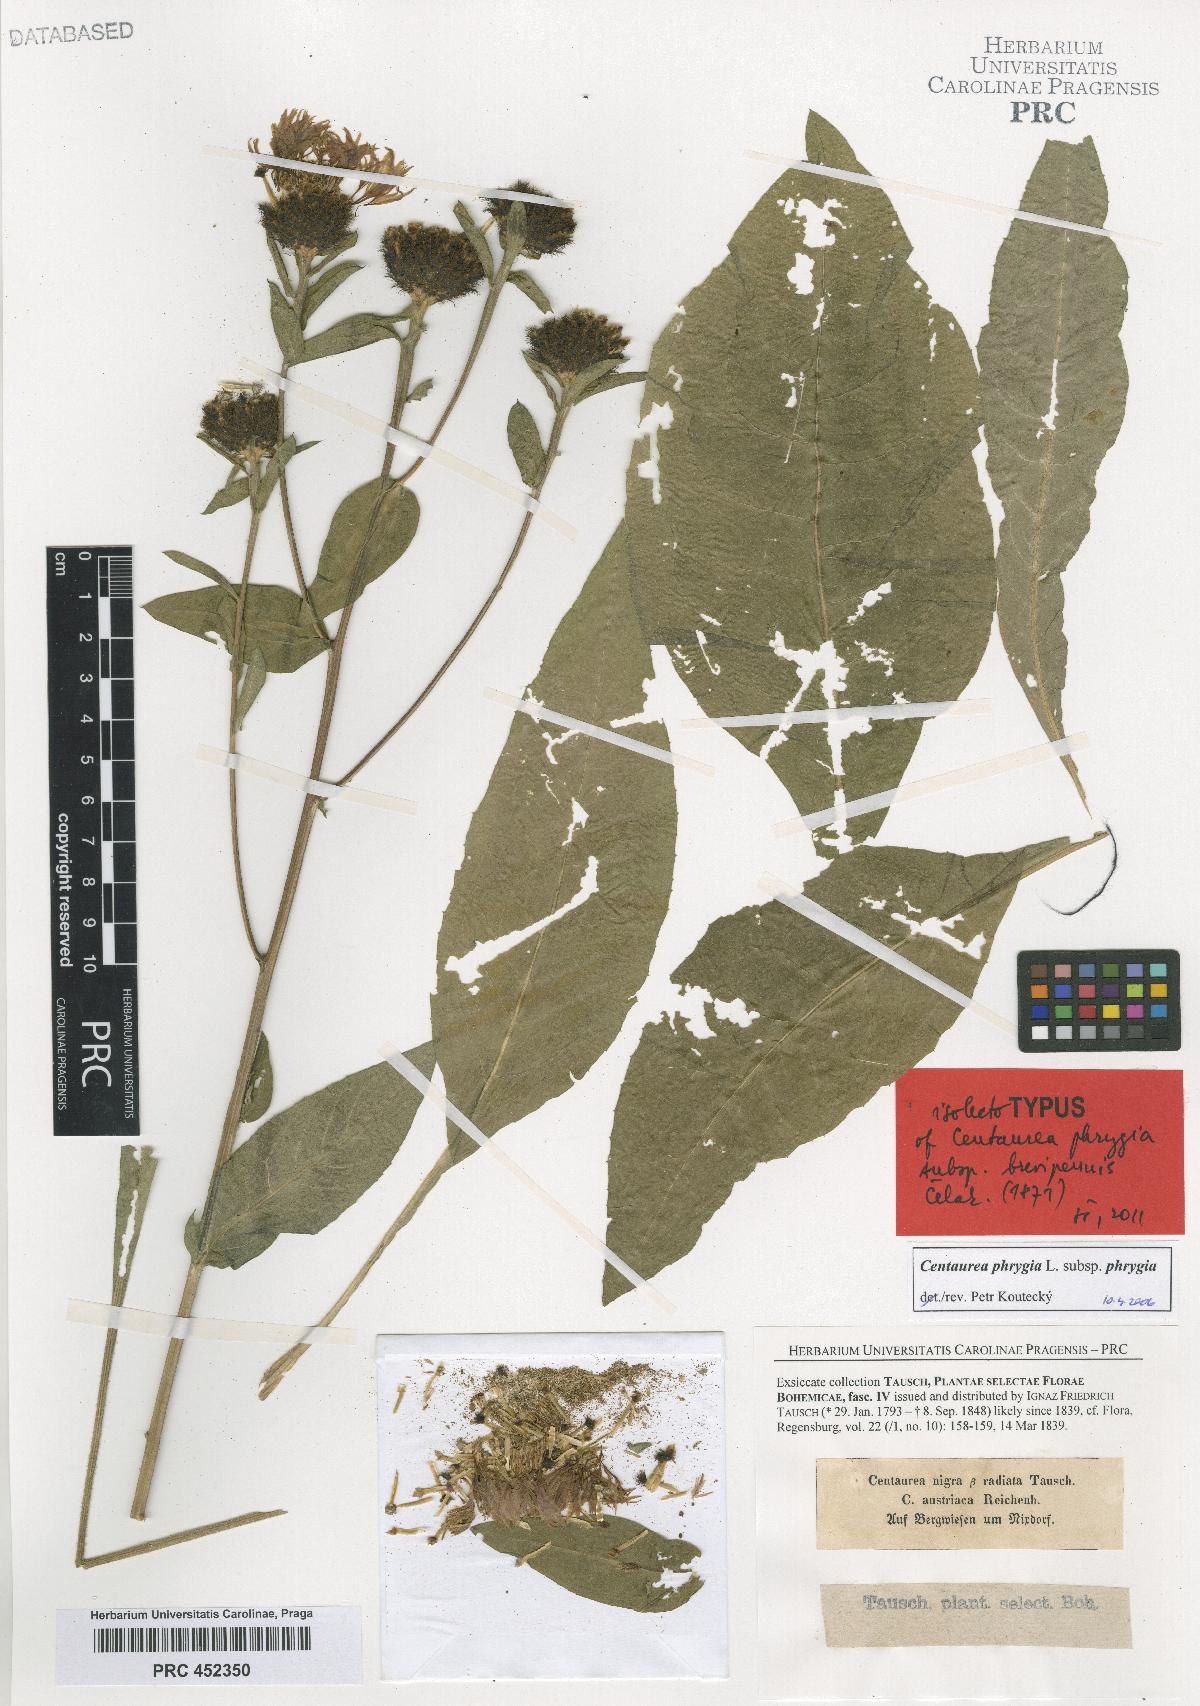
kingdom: Plantae
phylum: Tracheophyta
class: Magnoliopsida
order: Asterales
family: Asteraceae
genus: Centaurea
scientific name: Centaurea phrygia
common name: Wig knapweed
